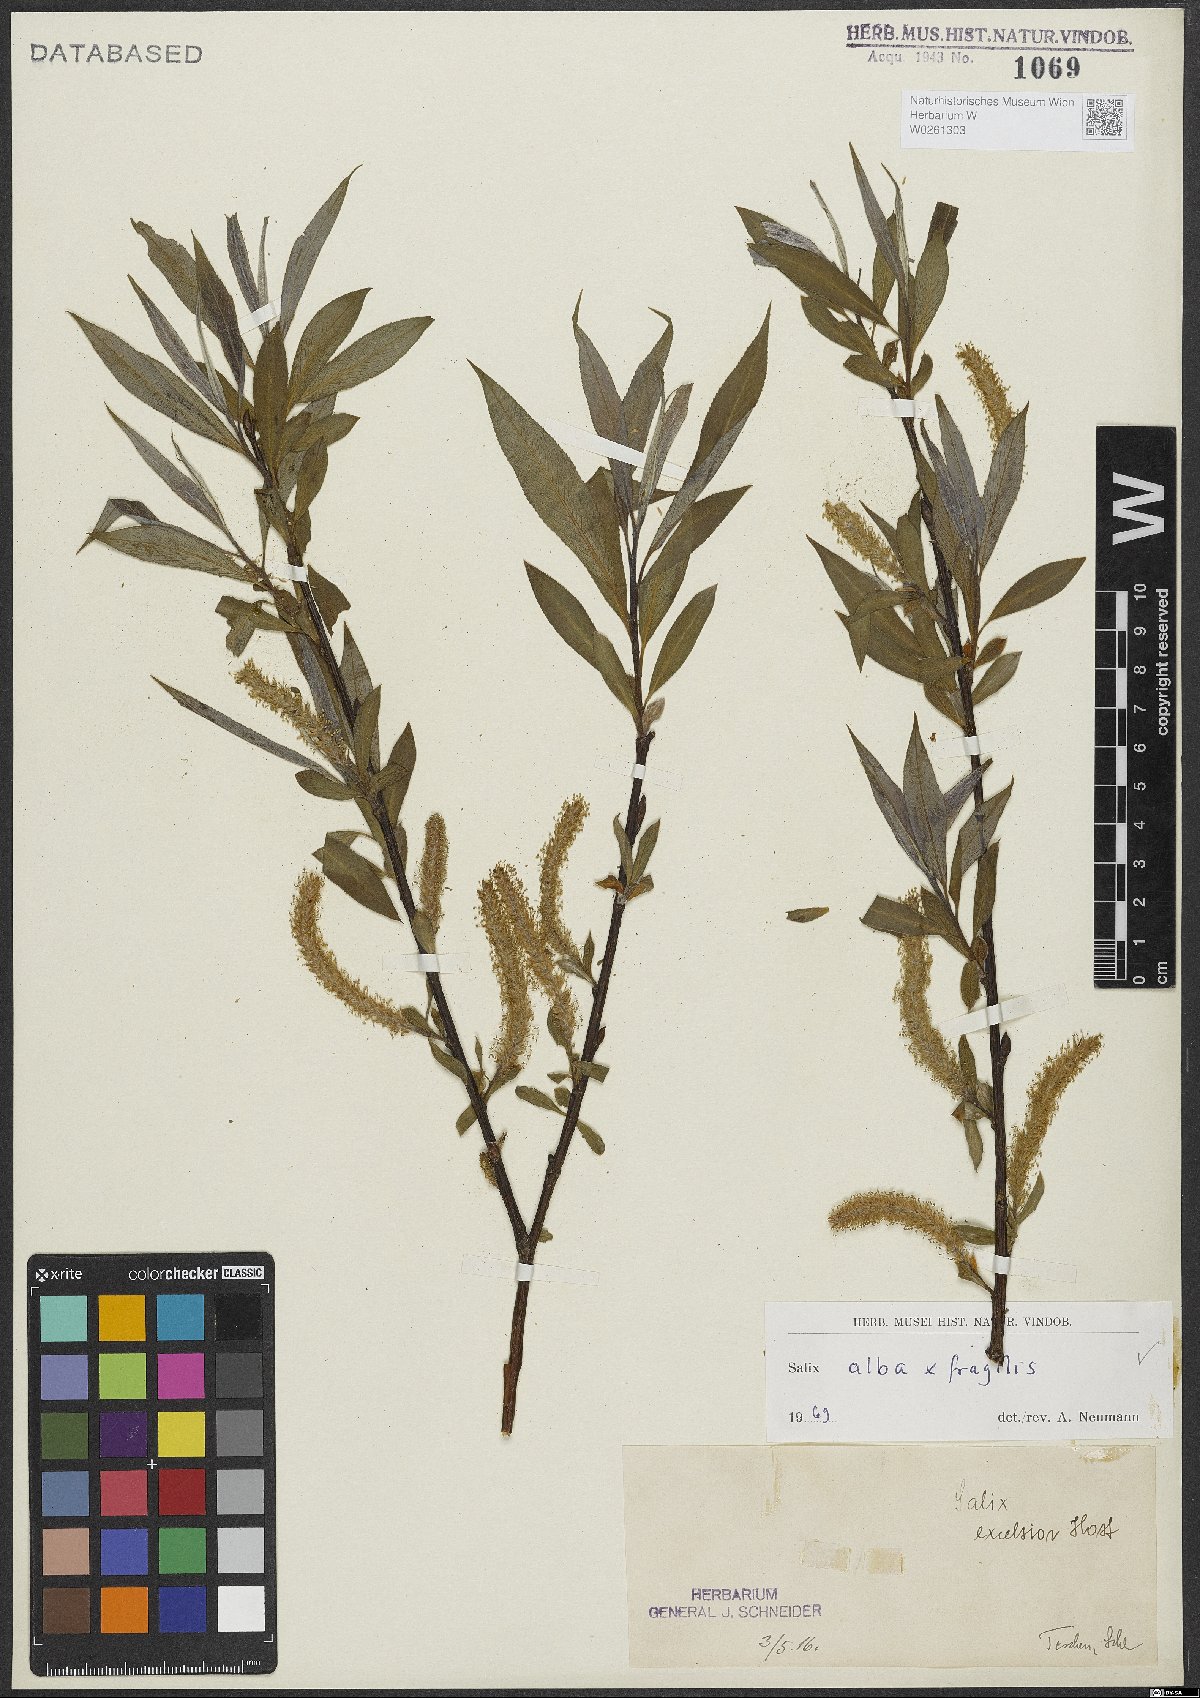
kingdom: Plantae
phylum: Tracheophyta
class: Magnoliopsida
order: Malpighiales
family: Salicaceae
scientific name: Salicaceae
